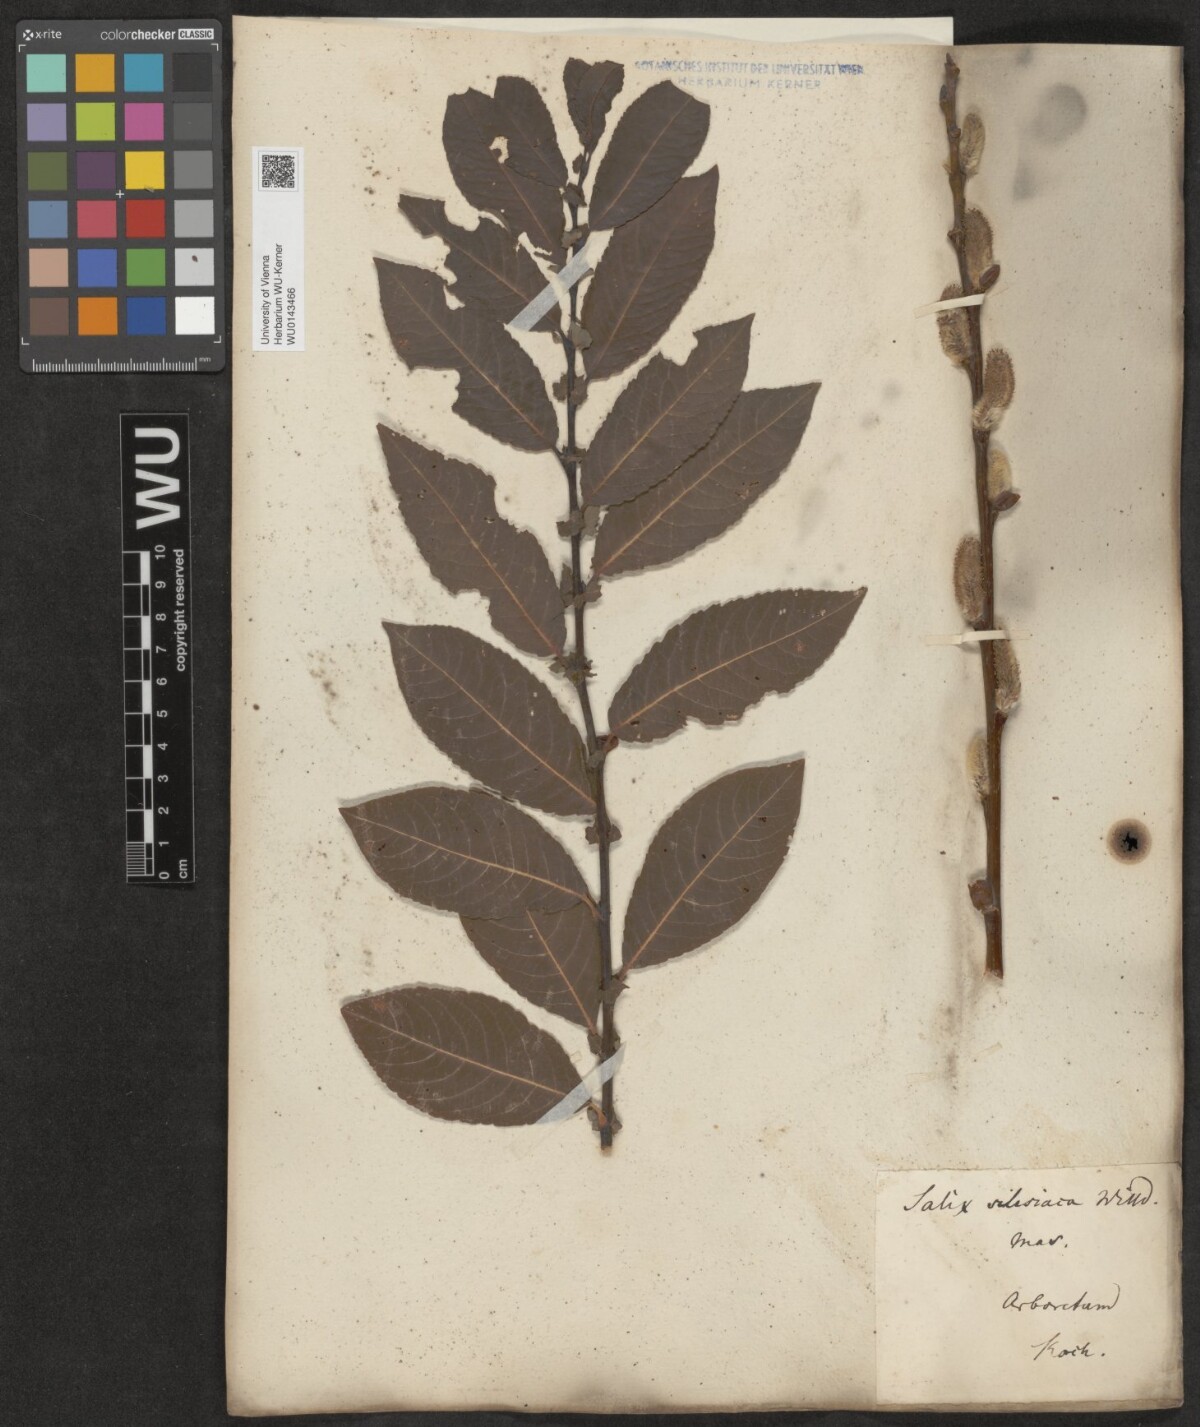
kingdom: Plantae
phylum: Tracheophyta
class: Magnoliopsida
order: Malpighiales
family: Salicaceae
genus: Salix
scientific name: Salix silesiaca
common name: Silesian willow
